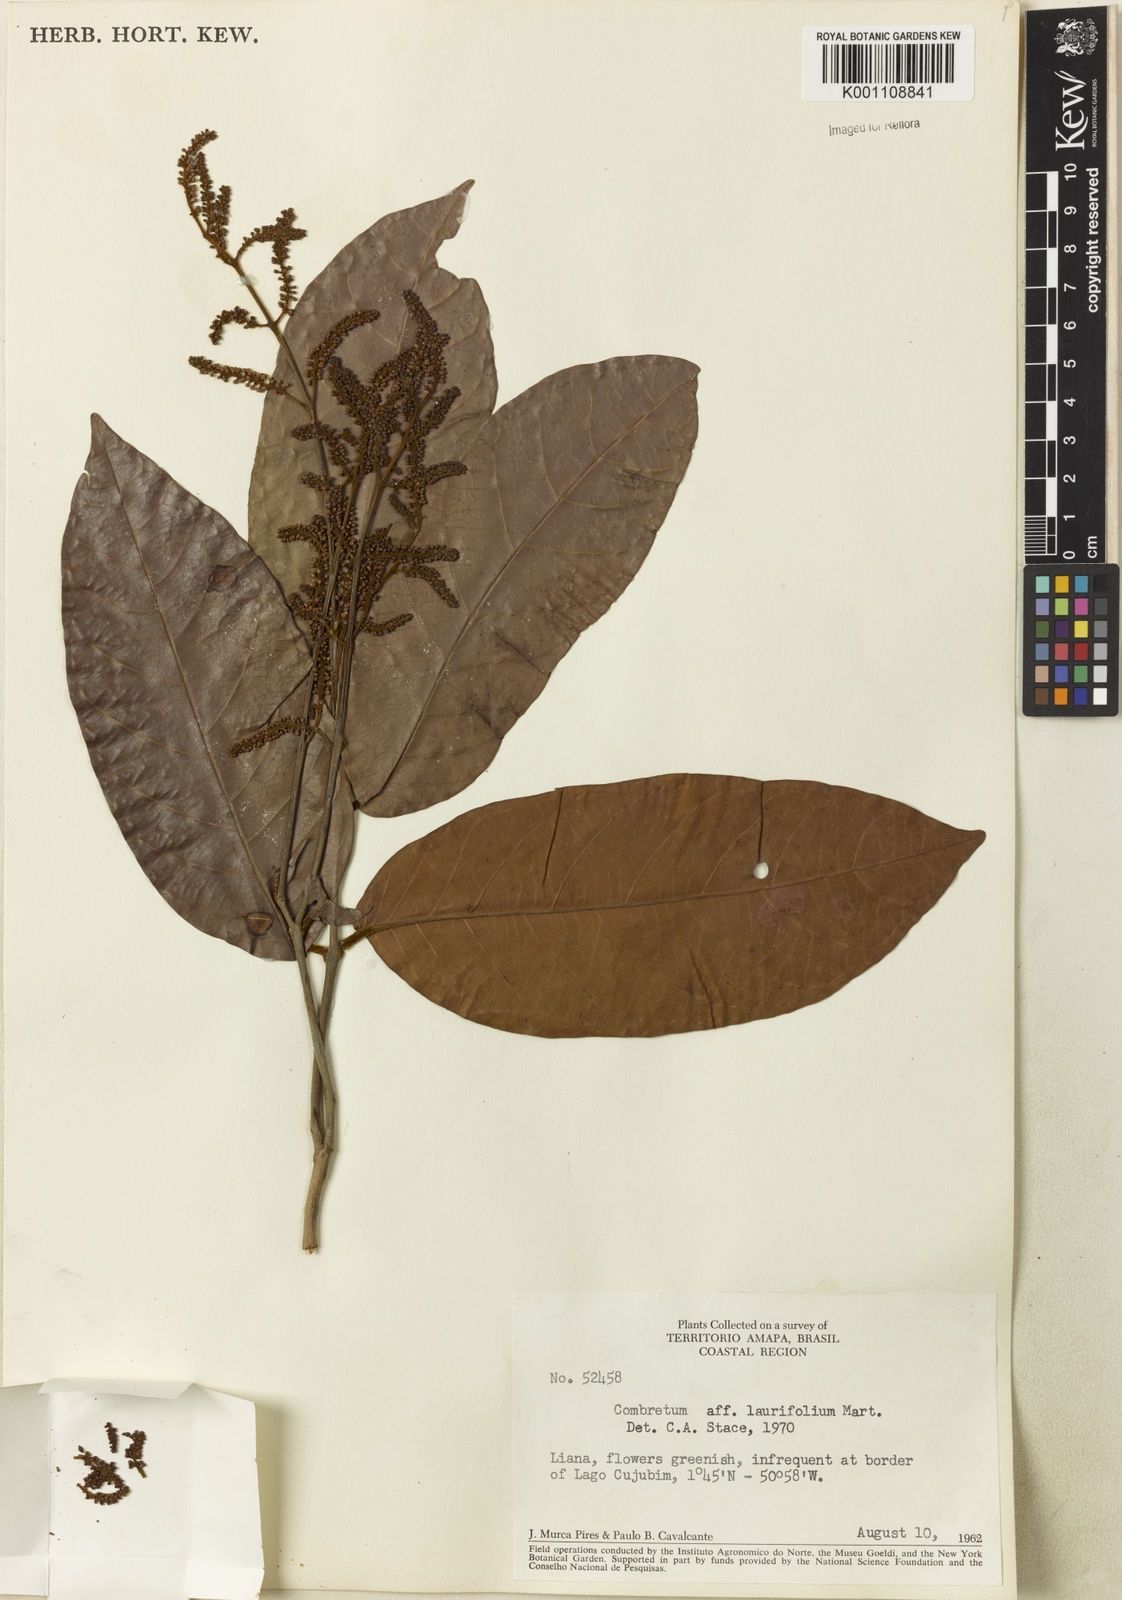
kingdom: Plantae
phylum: Tracheophyta
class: Magnoliopsida
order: Myrtales
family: Combretaceae
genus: Combretum
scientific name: Combretum
